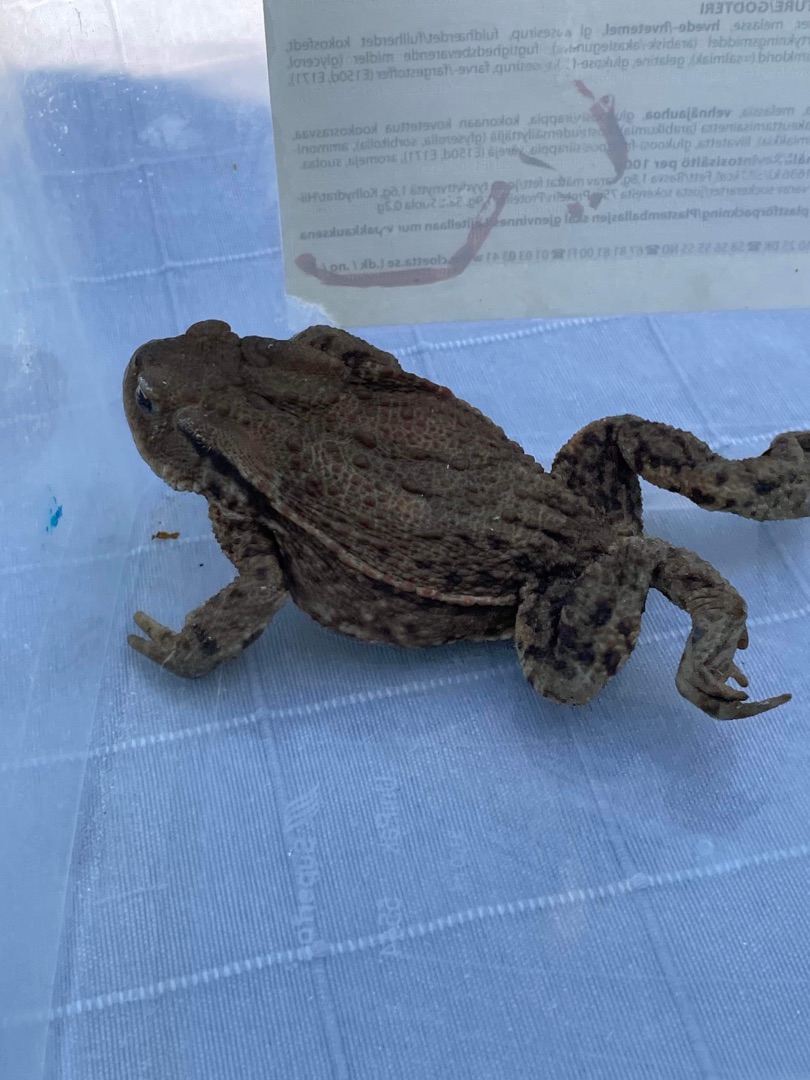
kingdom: Animalia
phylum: Chordata
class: Amphibia
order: Anura
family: Bufonidae
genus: Bufo
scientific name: Bufo bufo
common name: Skrubtudse
